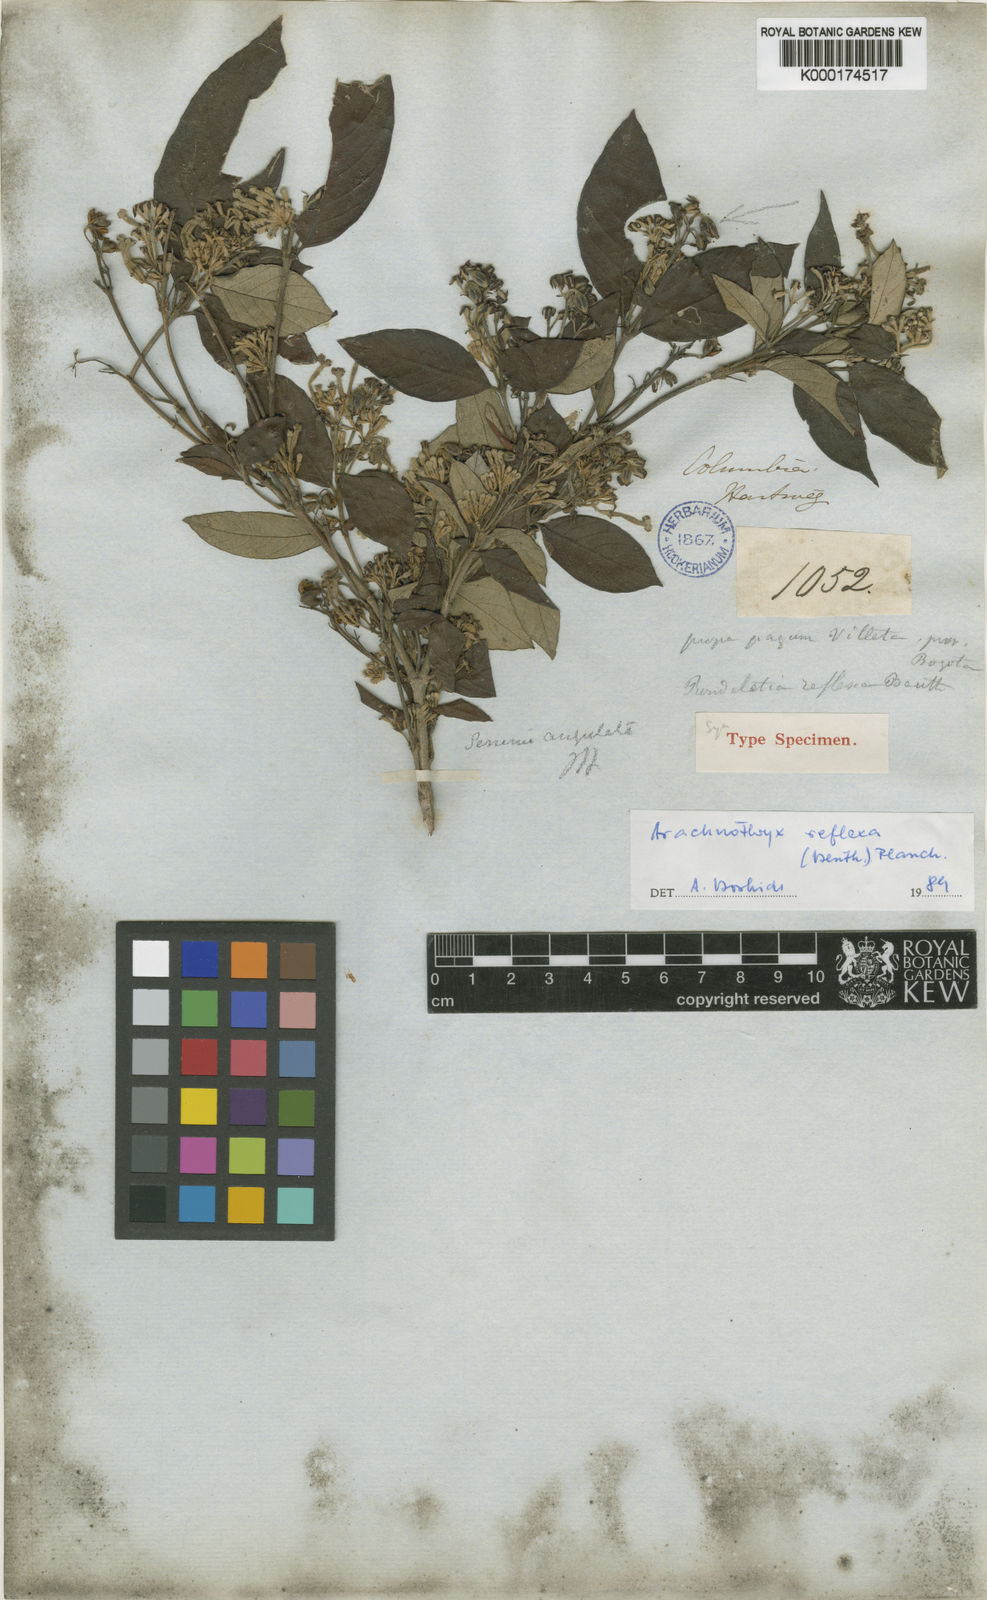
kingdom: Plantae
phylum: Tracheophyta
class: Magnoliopsida
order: Gentianales
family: Rubiaceae
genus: Arachnothryx
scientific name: Arachnothryx reflexa
